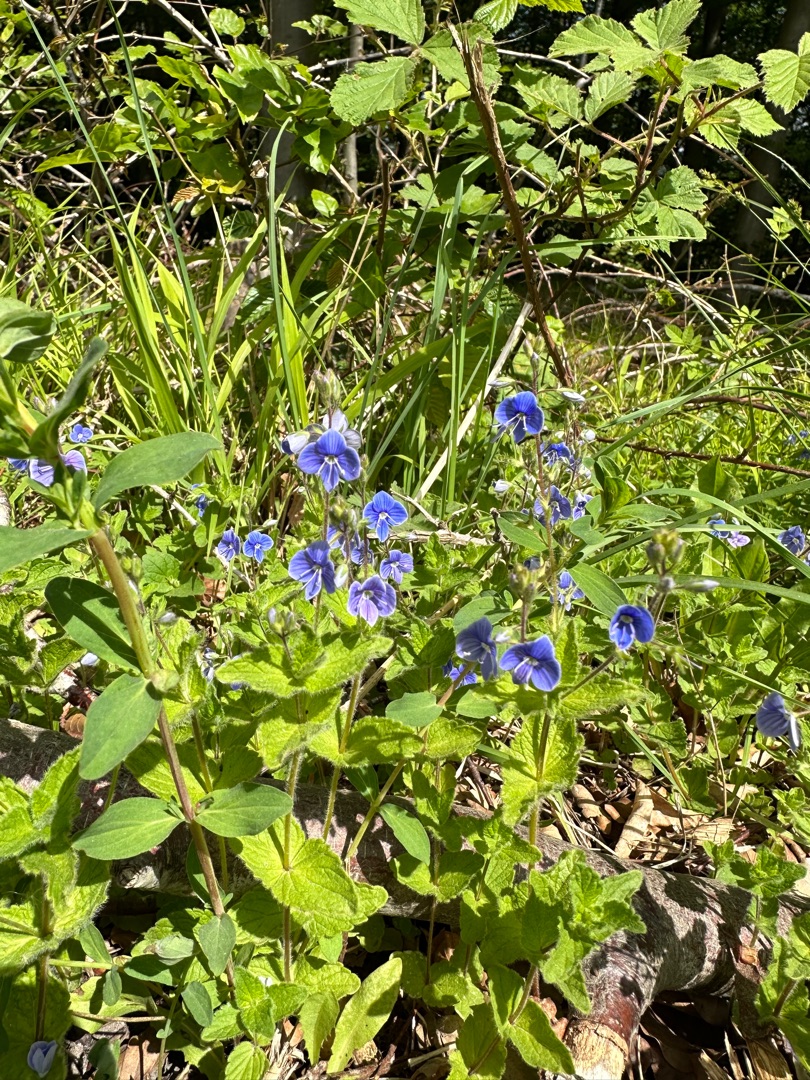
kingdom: Plantae
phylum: Tracheophyta
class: Magnoliopsida
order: Lamiales
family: Plantaginaceae
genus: Veronica
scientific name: Veronica chamaedrys
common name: Tveskægget ærenpris
